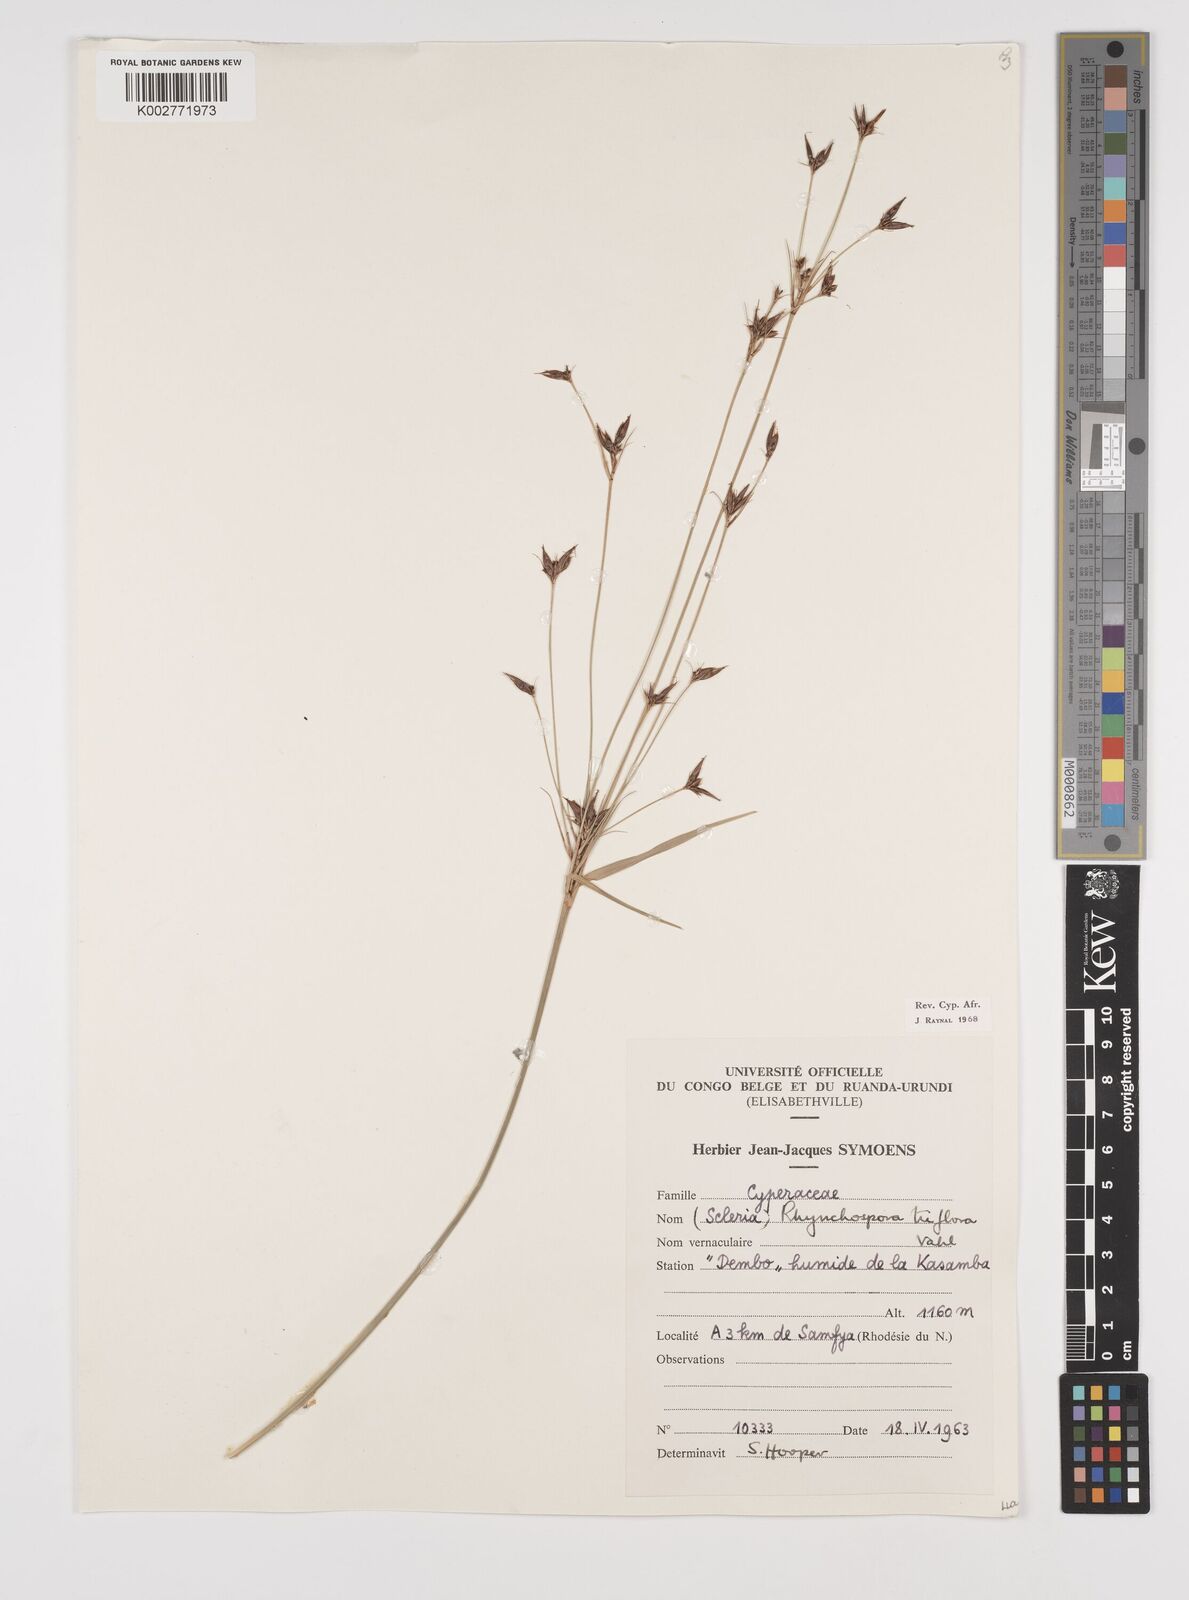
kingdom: Plantae
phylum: Tracheophyta
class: Liliopsida
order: Poales
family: Cyperaceae
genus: Rhynchospora
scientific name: Rhynchospora triflora
